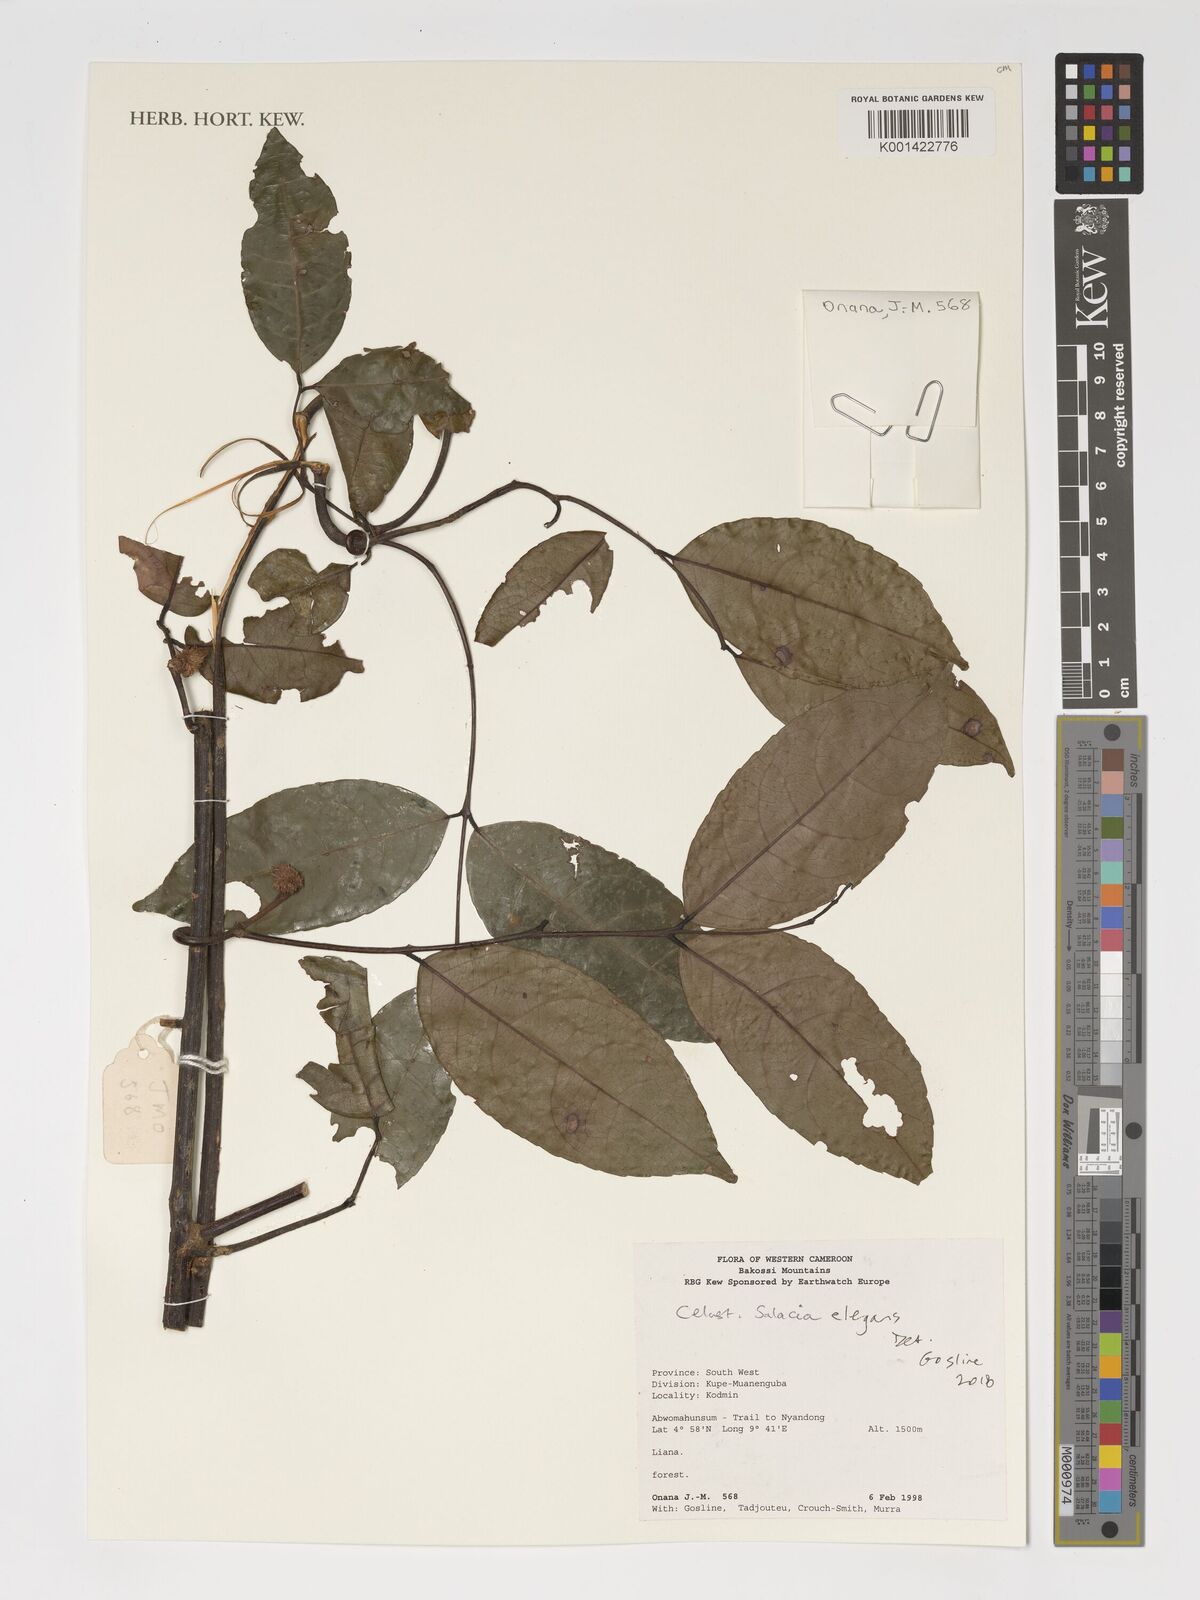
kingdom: Plantae
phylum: Tracheophyta
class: Magnoliopsida
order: Celastrales
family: Celastraceae
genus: Salacia
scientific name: Salacia elegans
